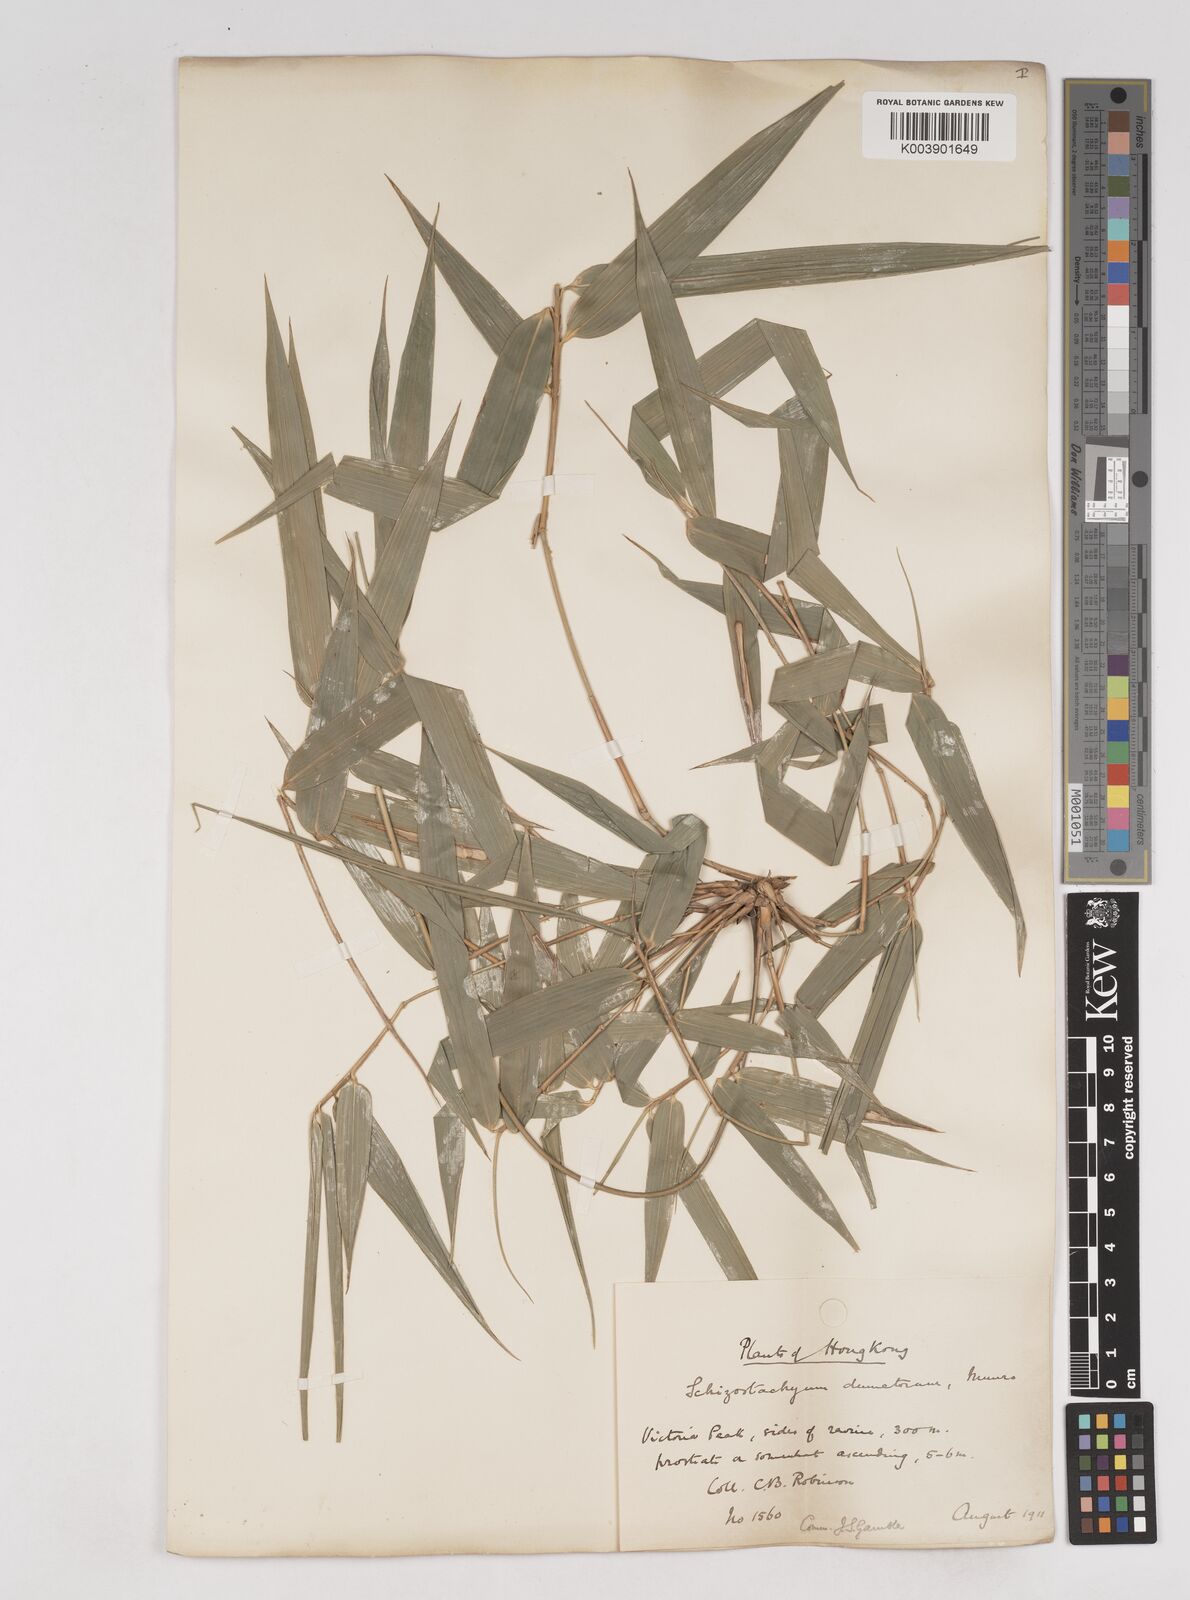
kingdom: Plantae
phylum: Tracheophyta
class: Liliopsida
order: Poales
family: Poaceae
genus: Schizostachyum
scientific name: Schizostachyum dumetorum
